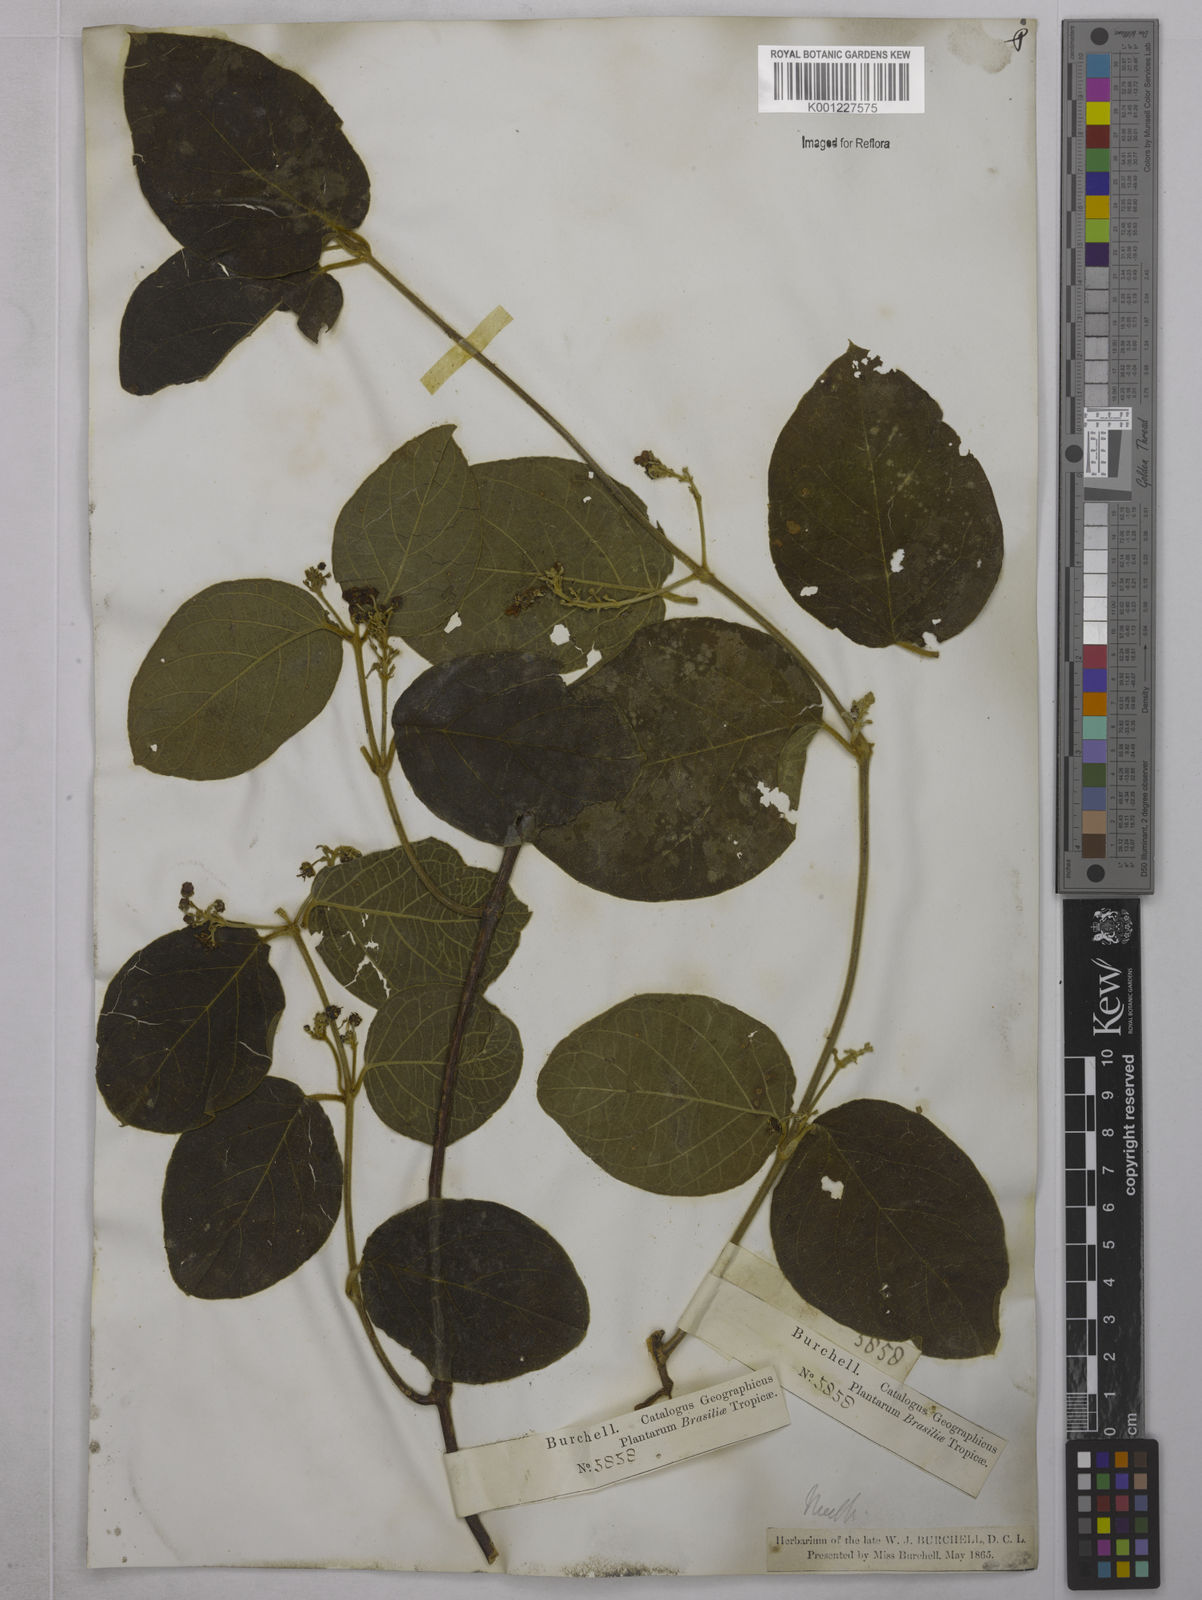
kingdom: Plantae
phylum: Tracheophyta
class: Magnoliopsida
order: Malpighiales
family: Malpighiaceae
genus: Mascagnia
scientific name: Mascagnia cordifolia
